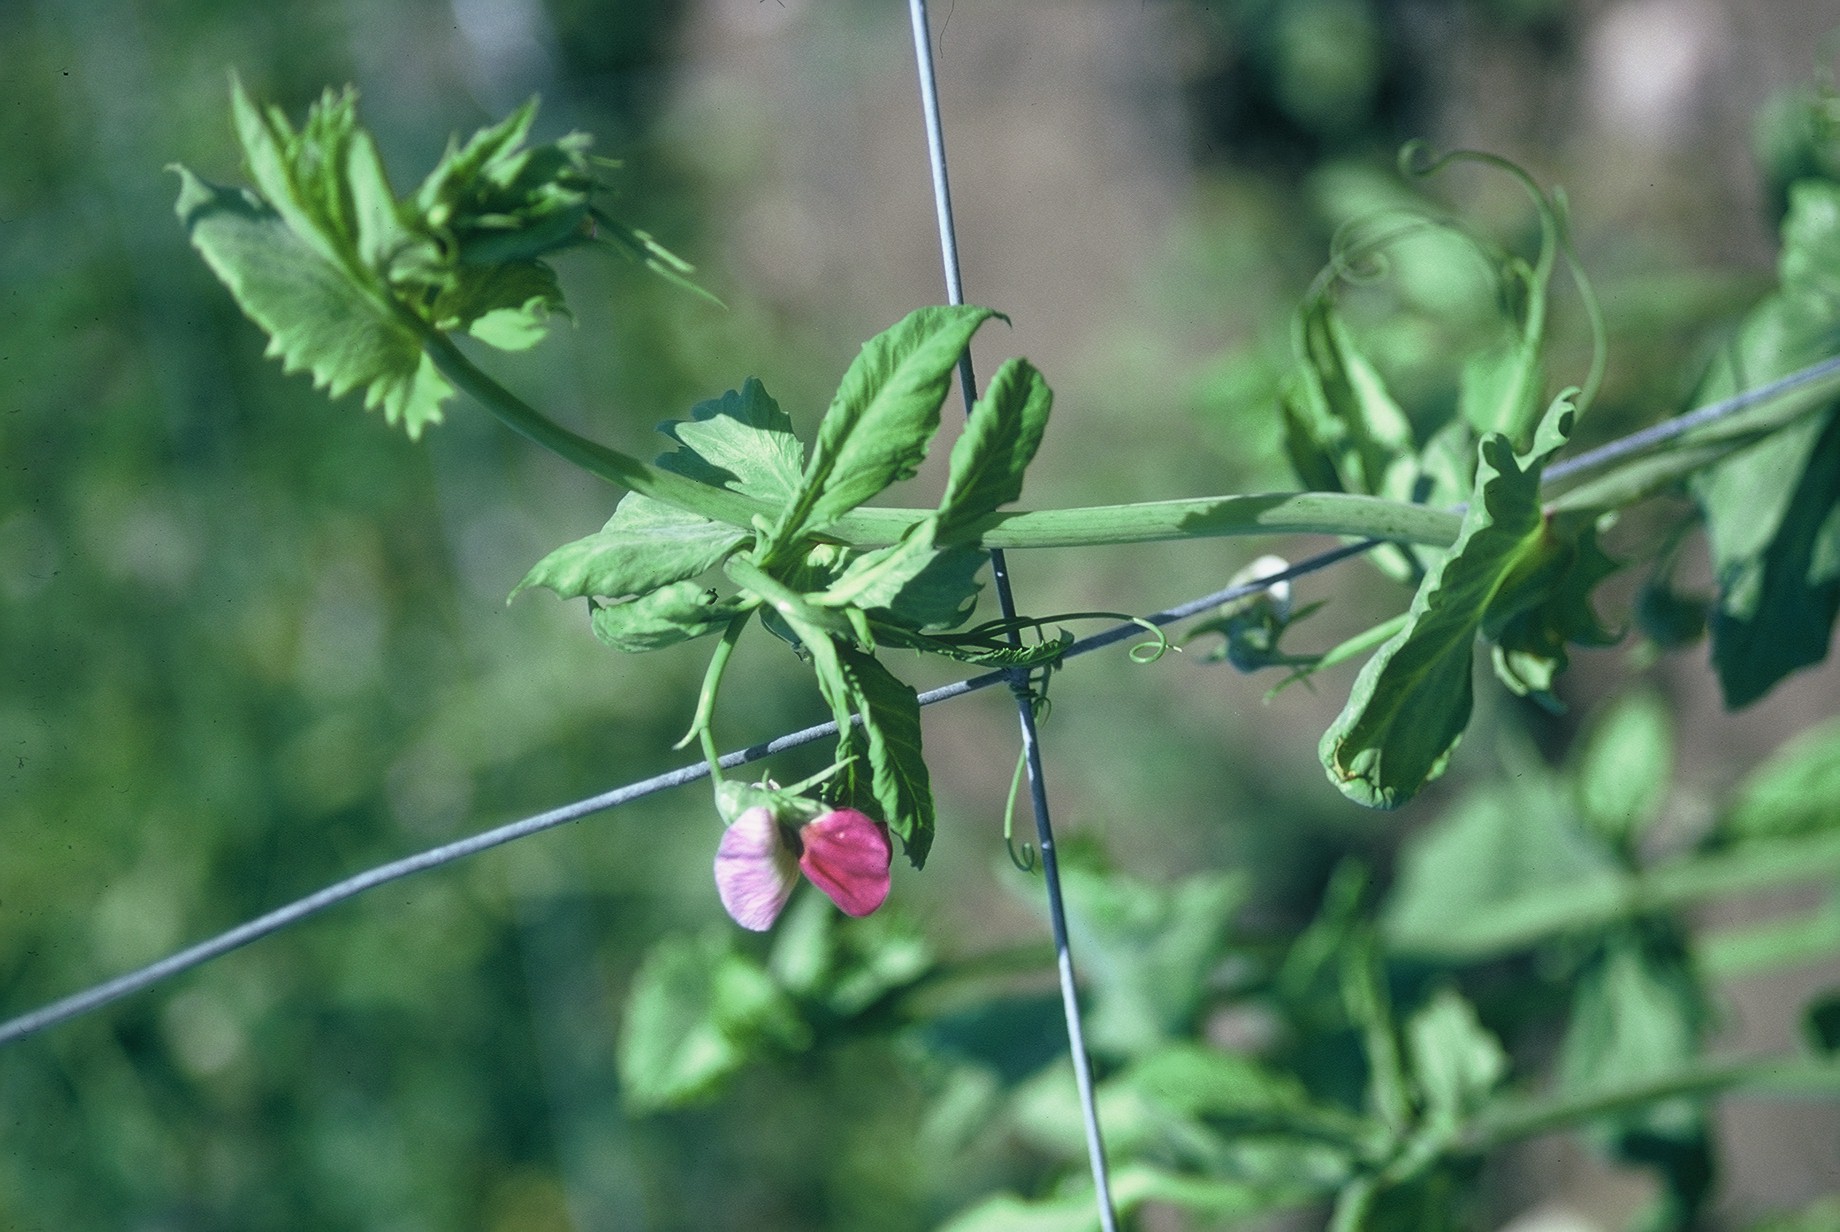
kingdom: Plantae
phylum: Tracheophyta
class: Magnoliopsida
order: Fabales
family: Fabaceae
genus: Lathyrus
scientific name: Lathyrus oleraceus
